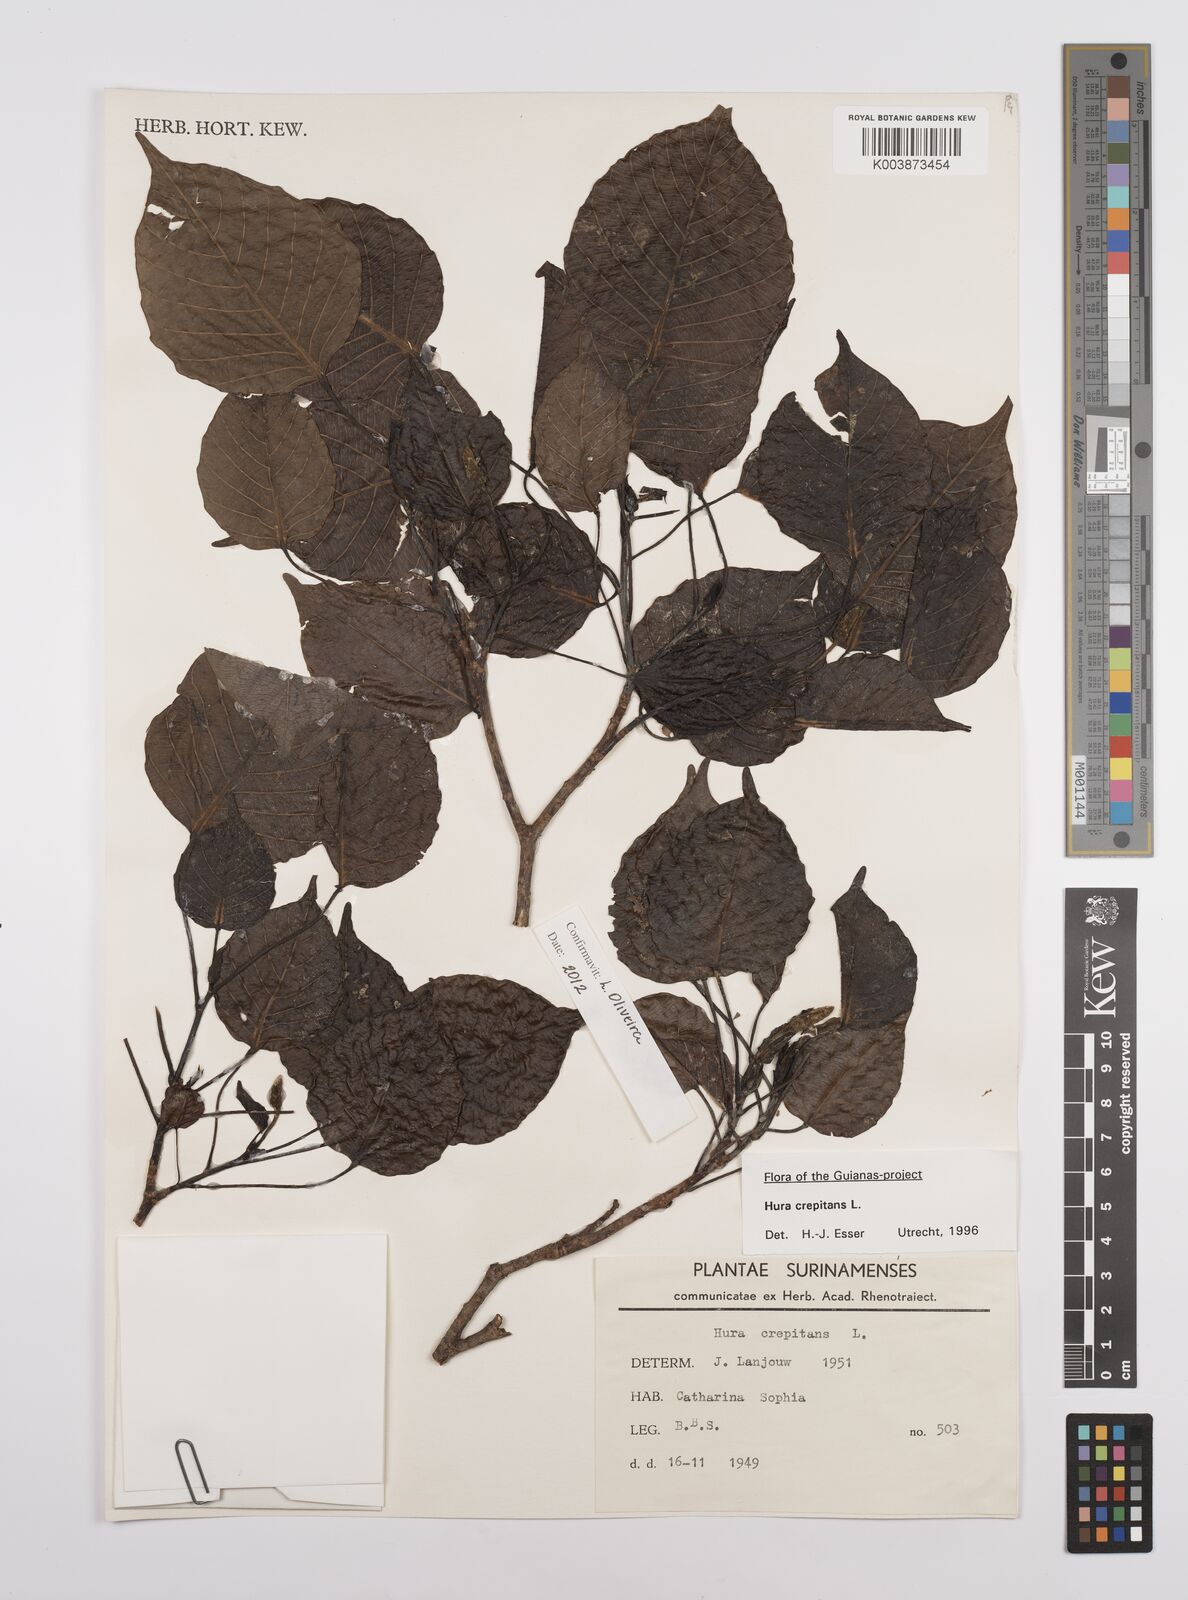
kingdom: Plantae
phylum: Tracheophyta
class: Magnoliopsida
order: Malpighiales
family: Euphorbiaceae
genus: Hura
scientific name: Hura crepitans
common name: Sandboxtree
